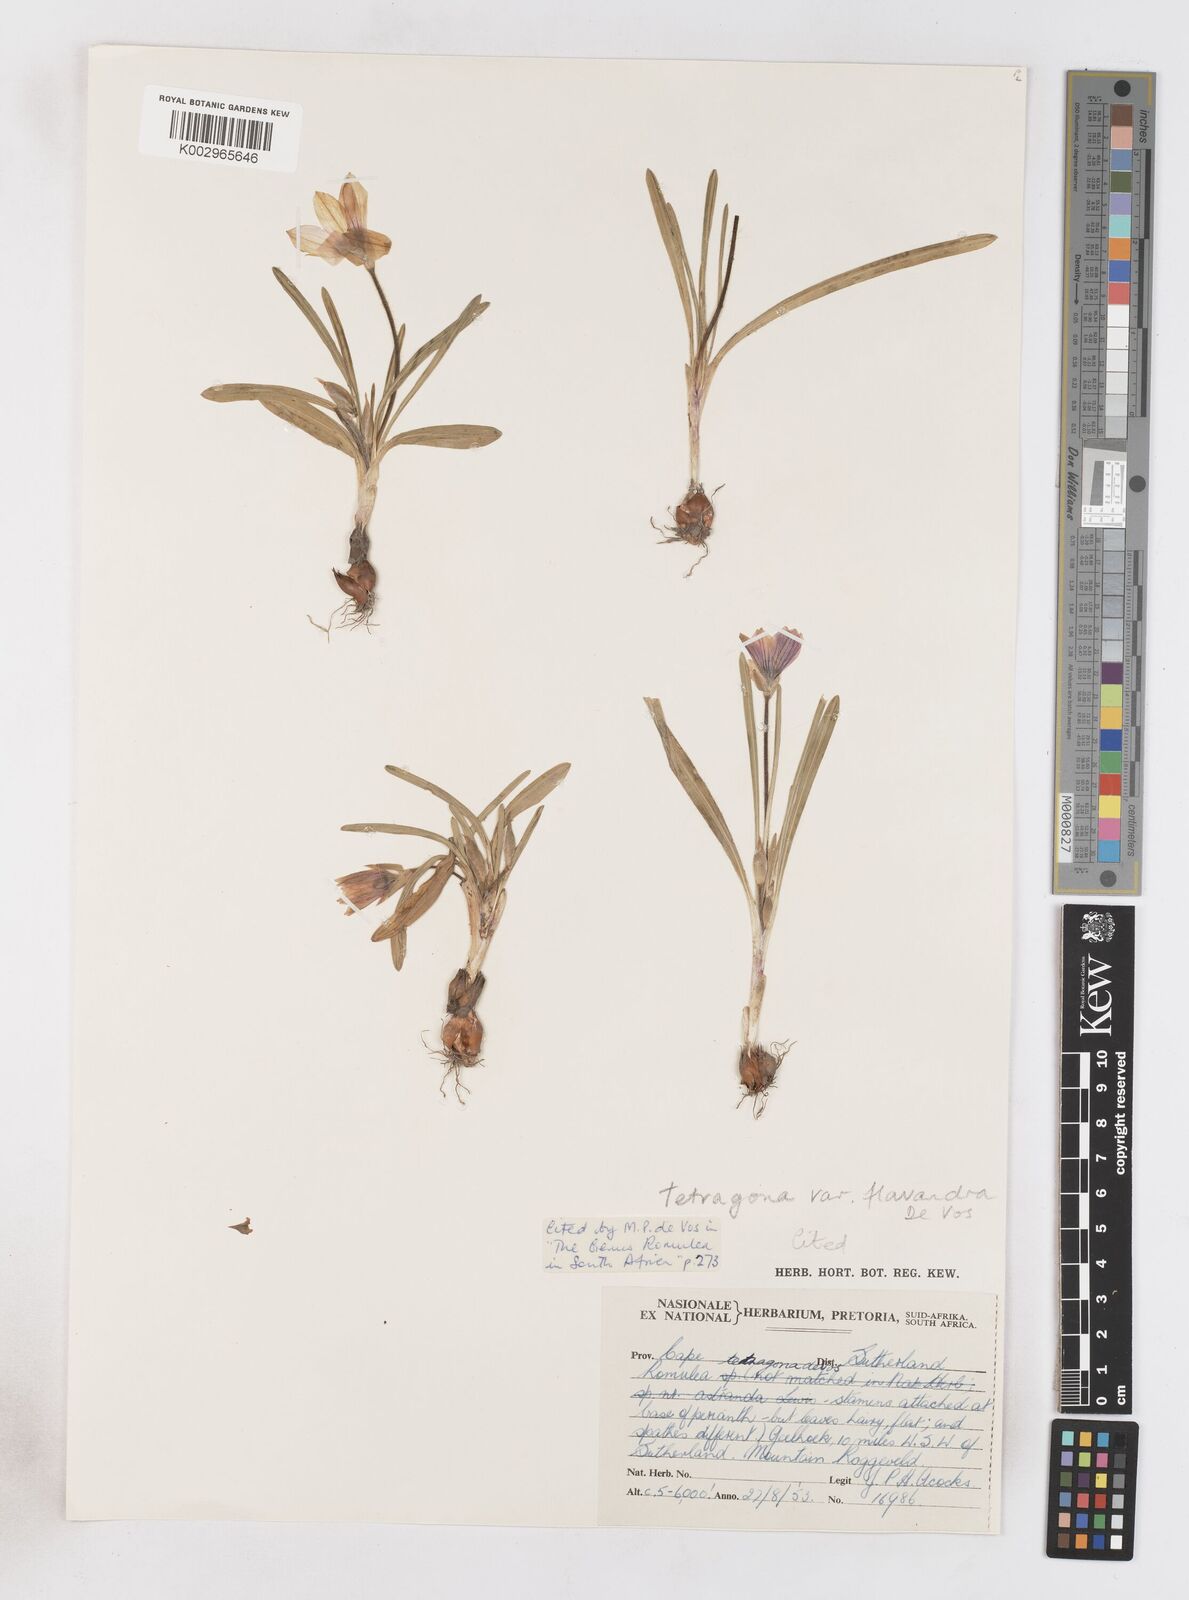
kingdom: Plantae
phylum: Tracheophyta
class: Liliopsida
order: Asparagales
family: Iridaceae
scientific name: Iridaceae
